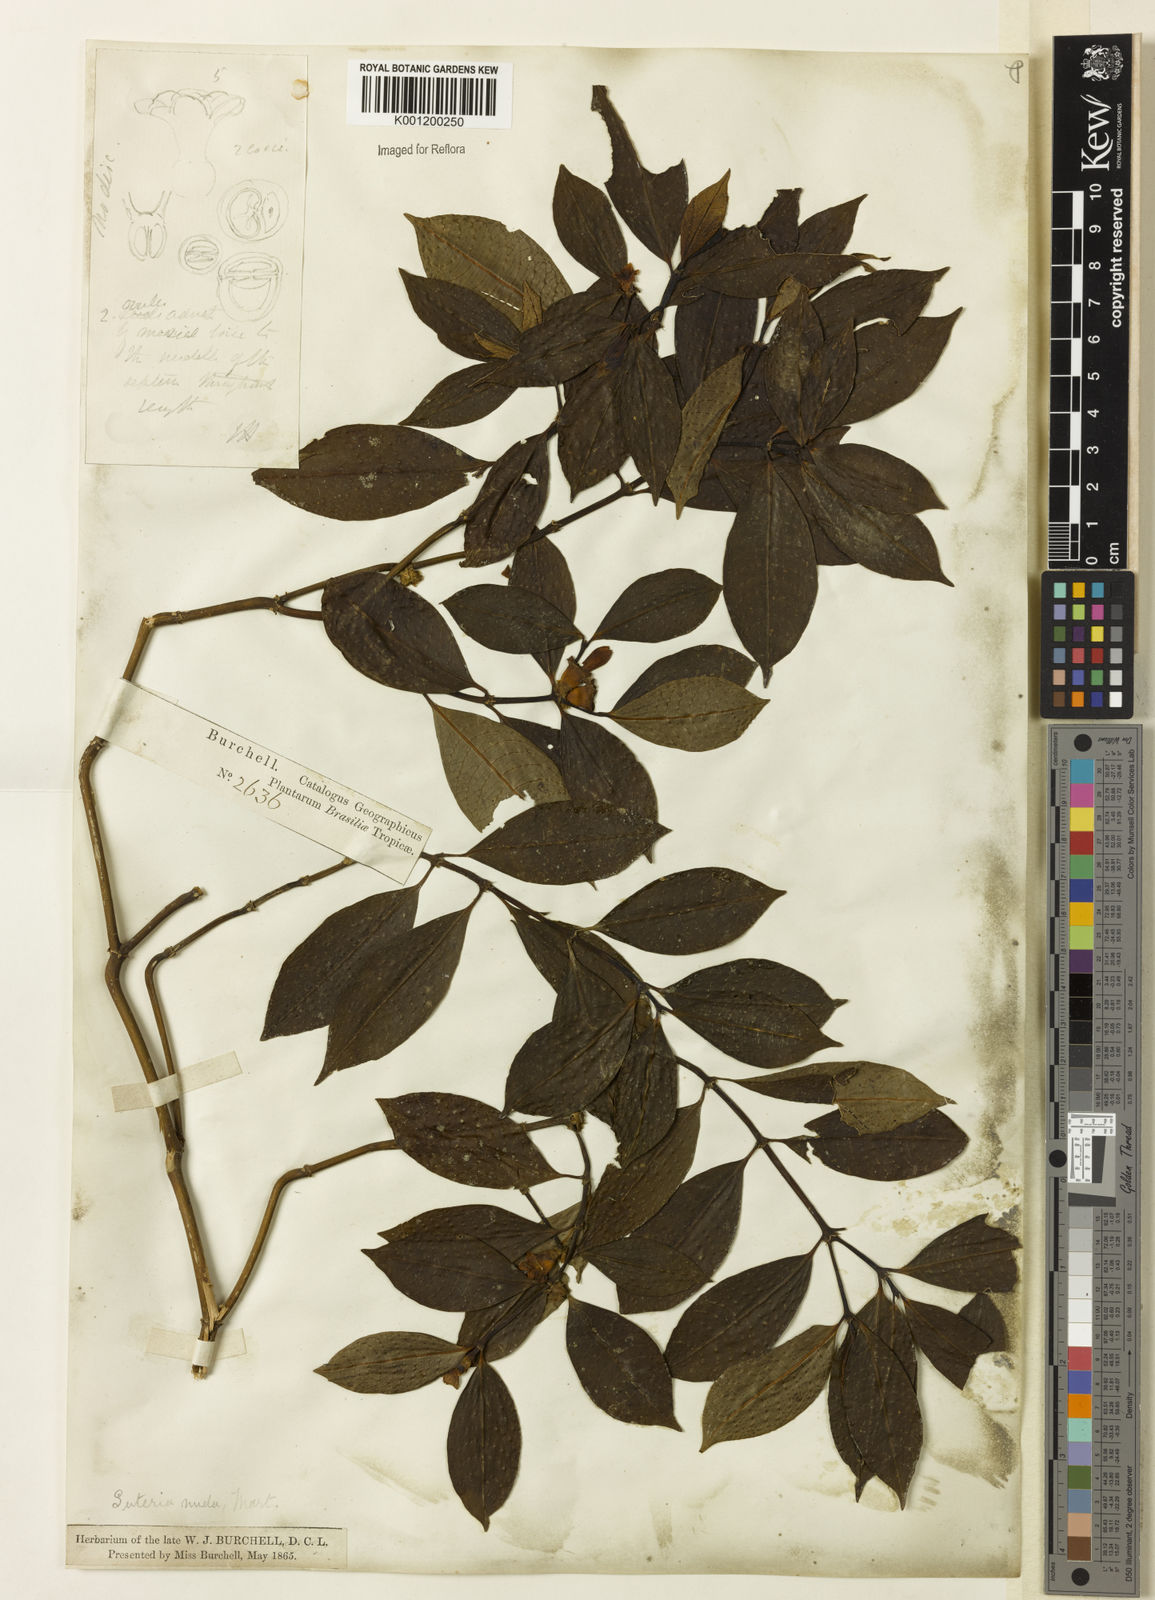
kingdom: Plantae
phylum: Tracheophyta
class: Magnoliopsida
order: Gentianales
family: Rubiaceae
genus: Psychotria
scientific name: Psychotria
